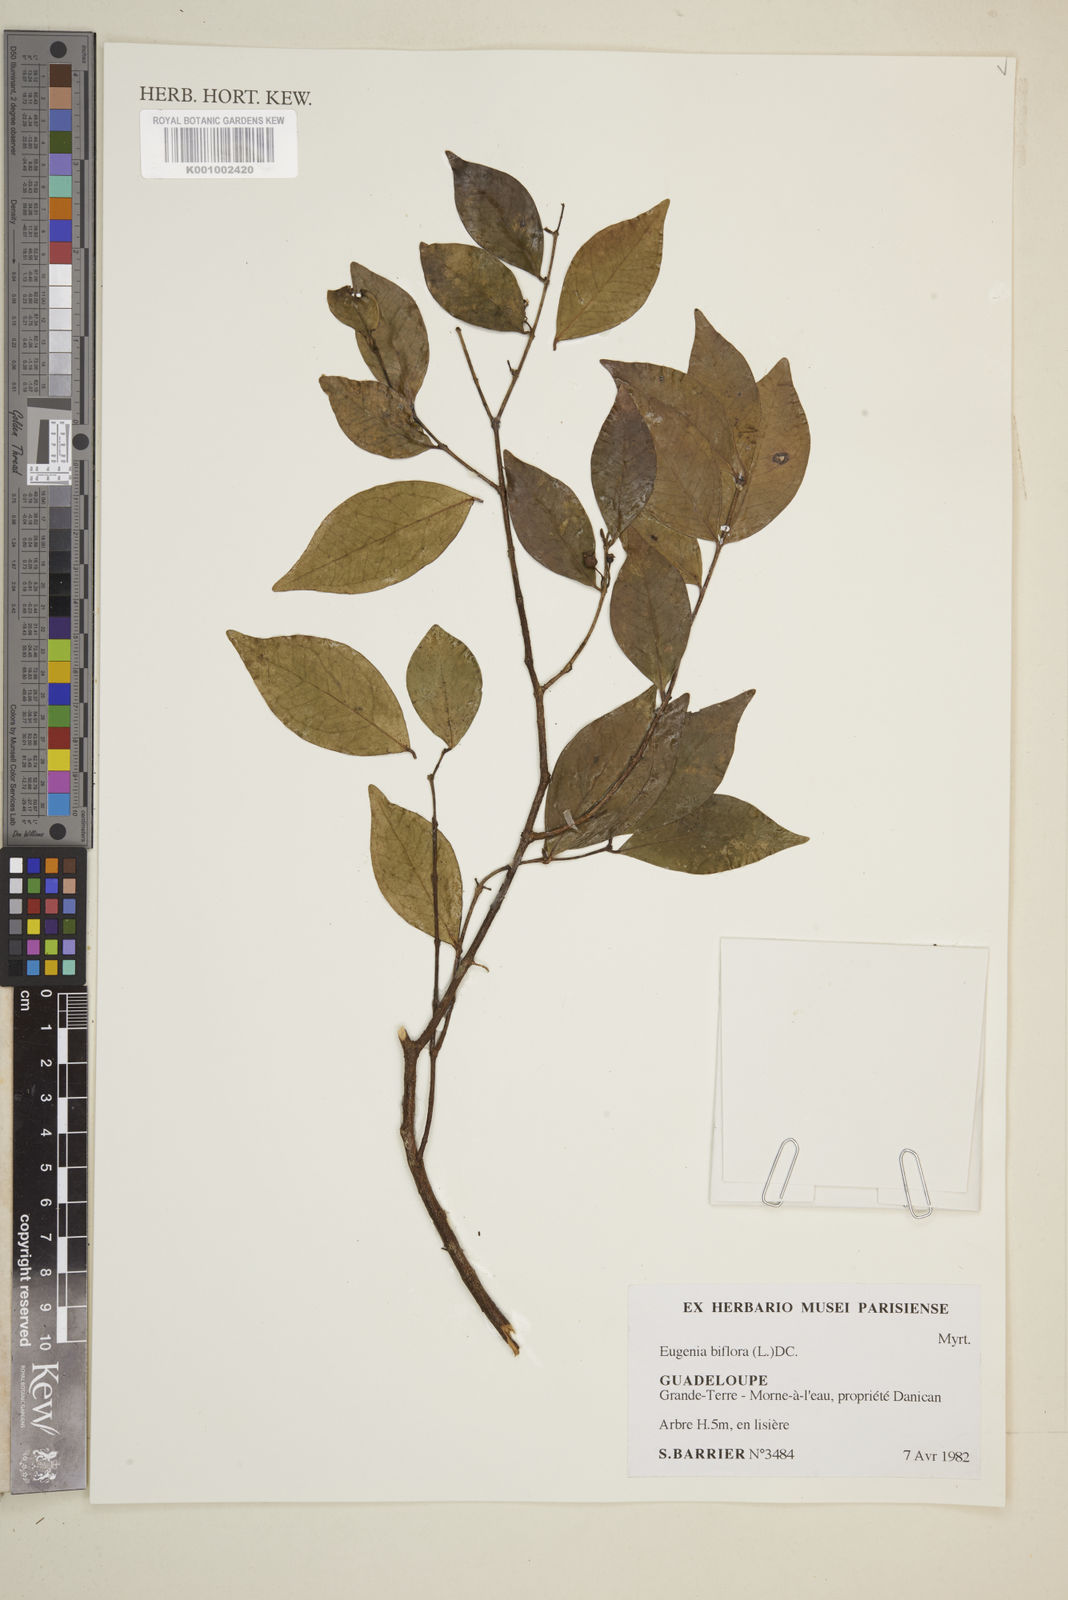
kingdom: Plantae
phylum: Tracheophyta
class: Magnoliopsida
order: Myrtales
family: Myrtaceae
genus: Eugenia
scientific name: Eugenia biflora
